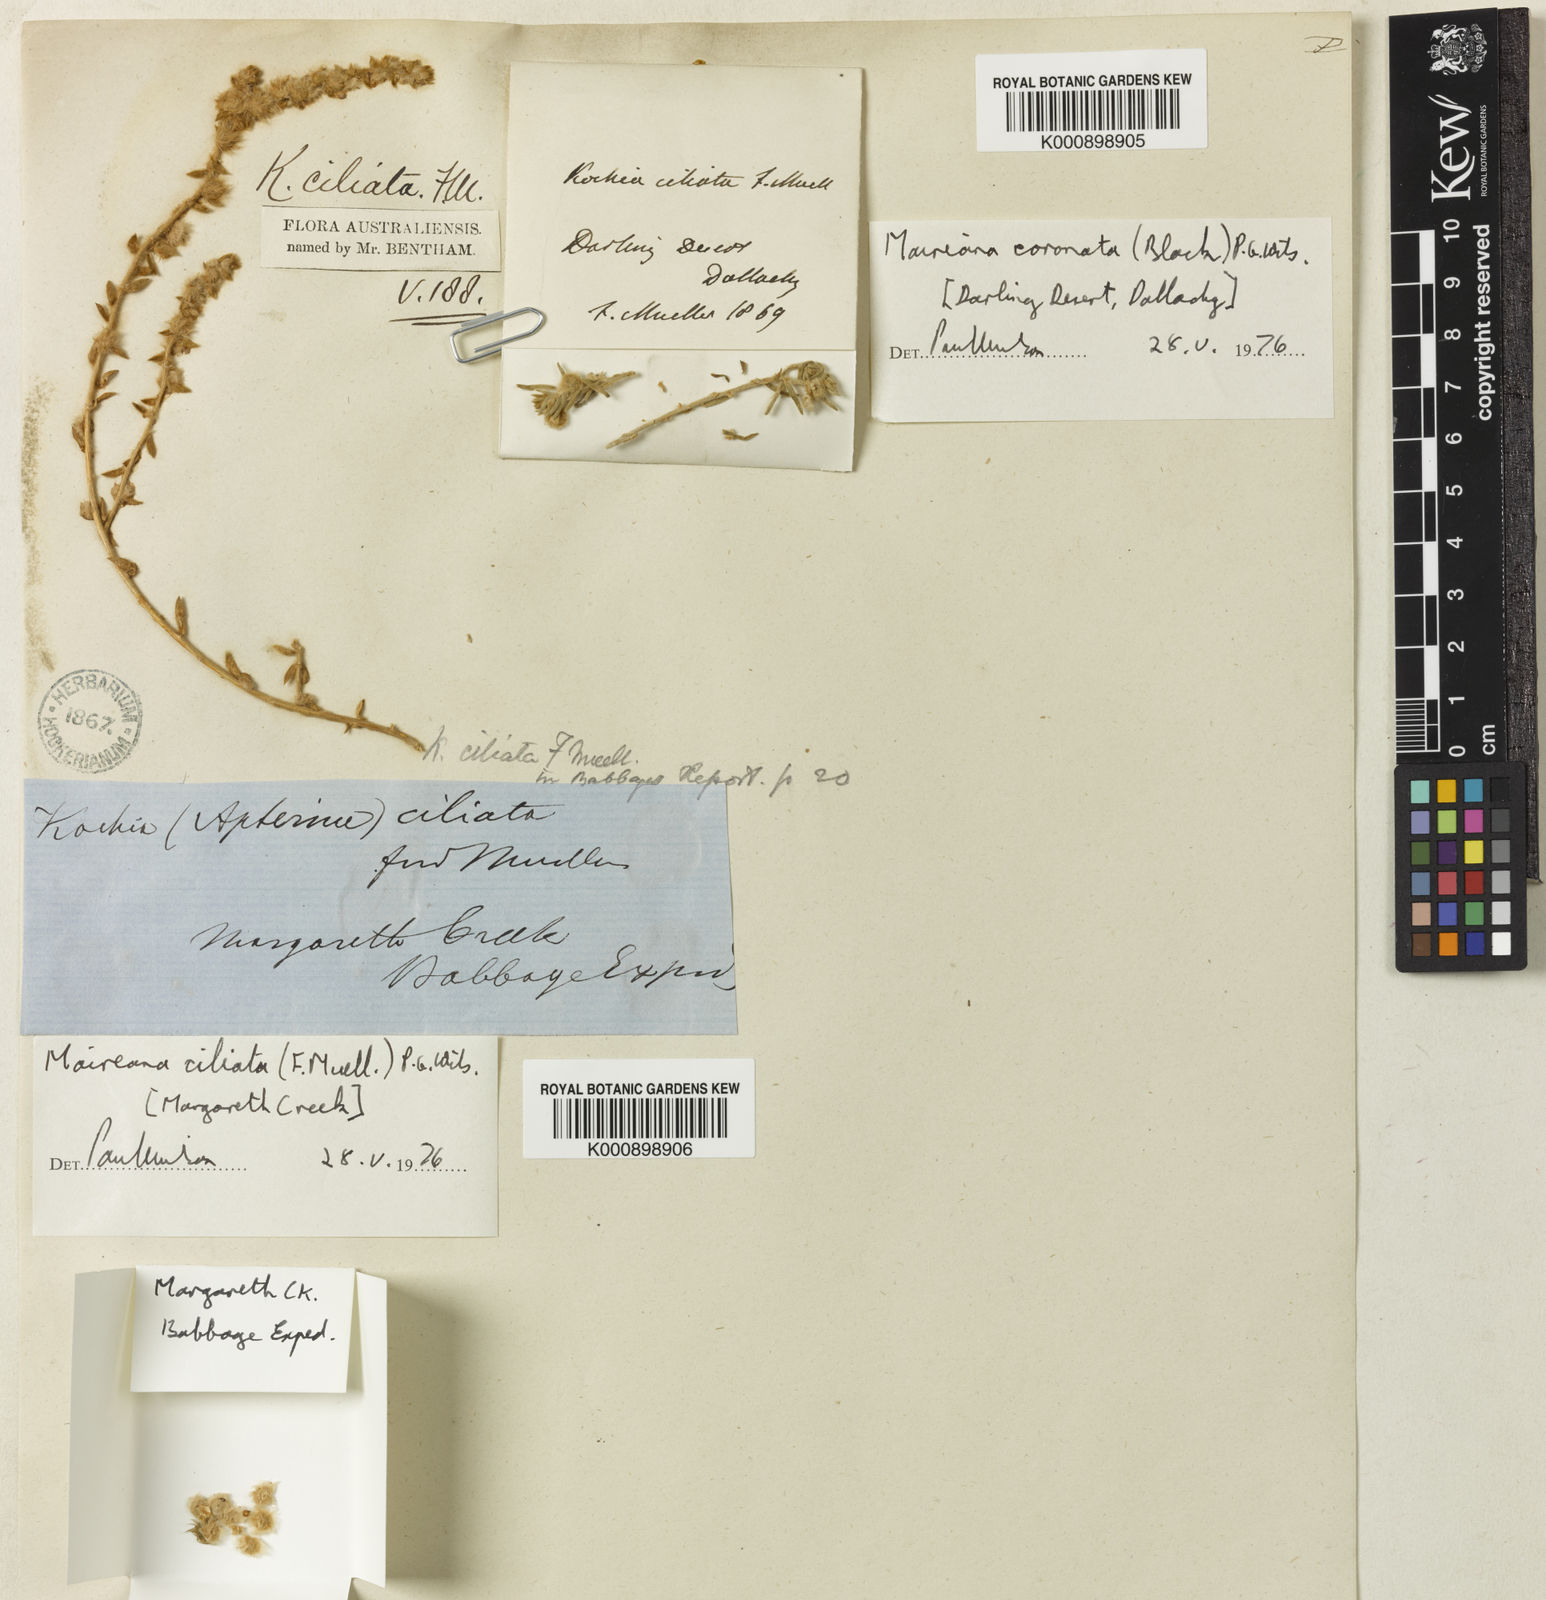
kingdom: Plantae
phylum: Tracheophyta
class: Magnoliopsida
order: Caryophyllales
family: Amaranthaceae
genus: Maireana
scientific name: Maireana ciliata
